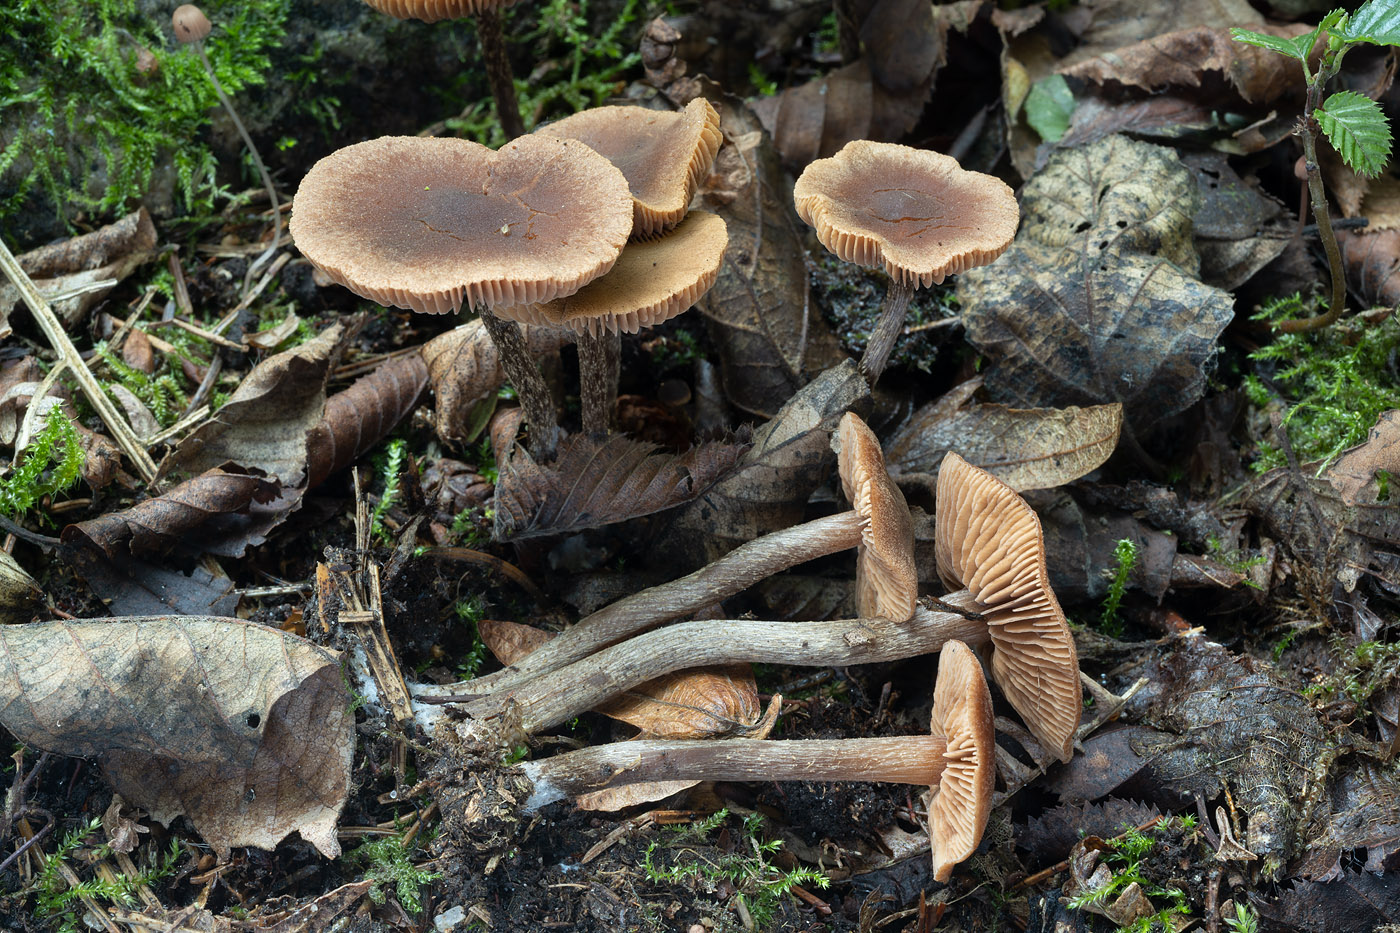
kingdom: Fungi
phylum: Basidiomycota
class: Agaricomycetes
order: Agaricales
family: Hymenogastraceae
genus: Naucoria
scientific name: Naucoria sphagneti
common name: lysrandet knaphat
